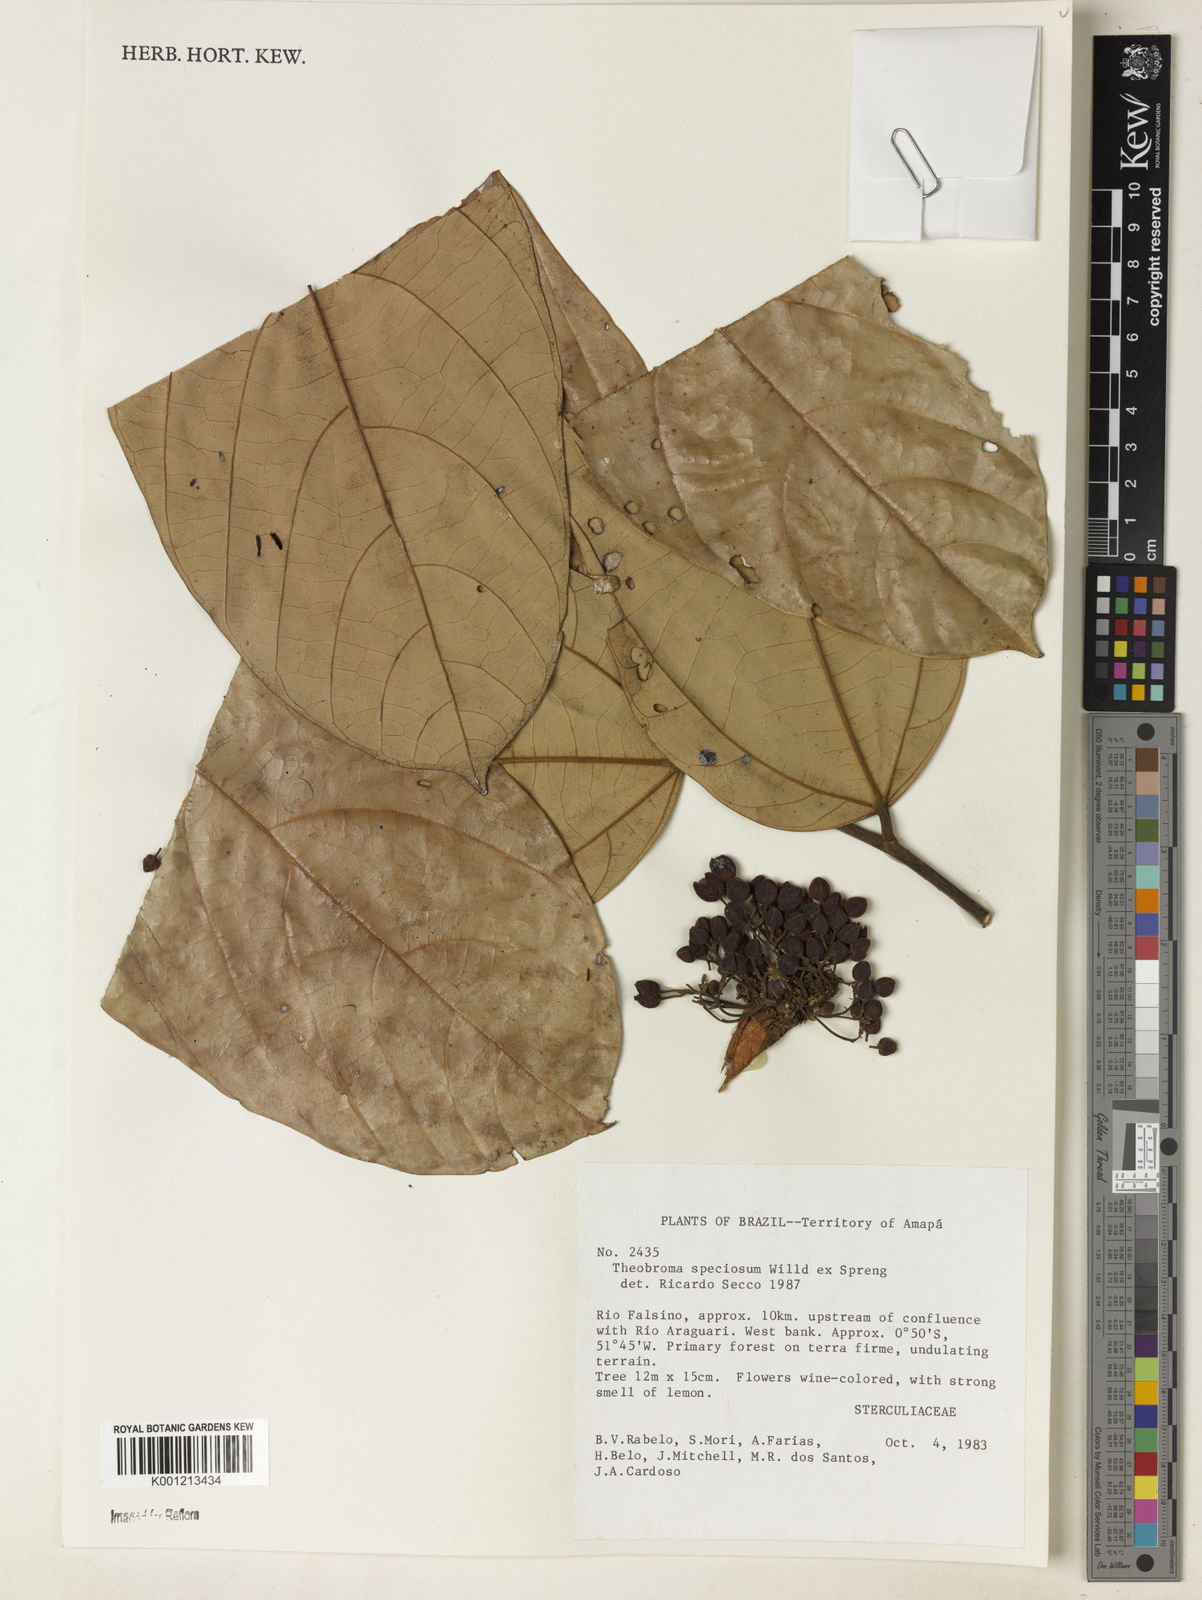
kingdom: Plantae
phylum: Tracheophyta
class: Magnoliopsida
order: Malvales
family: Malvaceae
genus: Theobroma
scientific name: Theobroma velutinum
